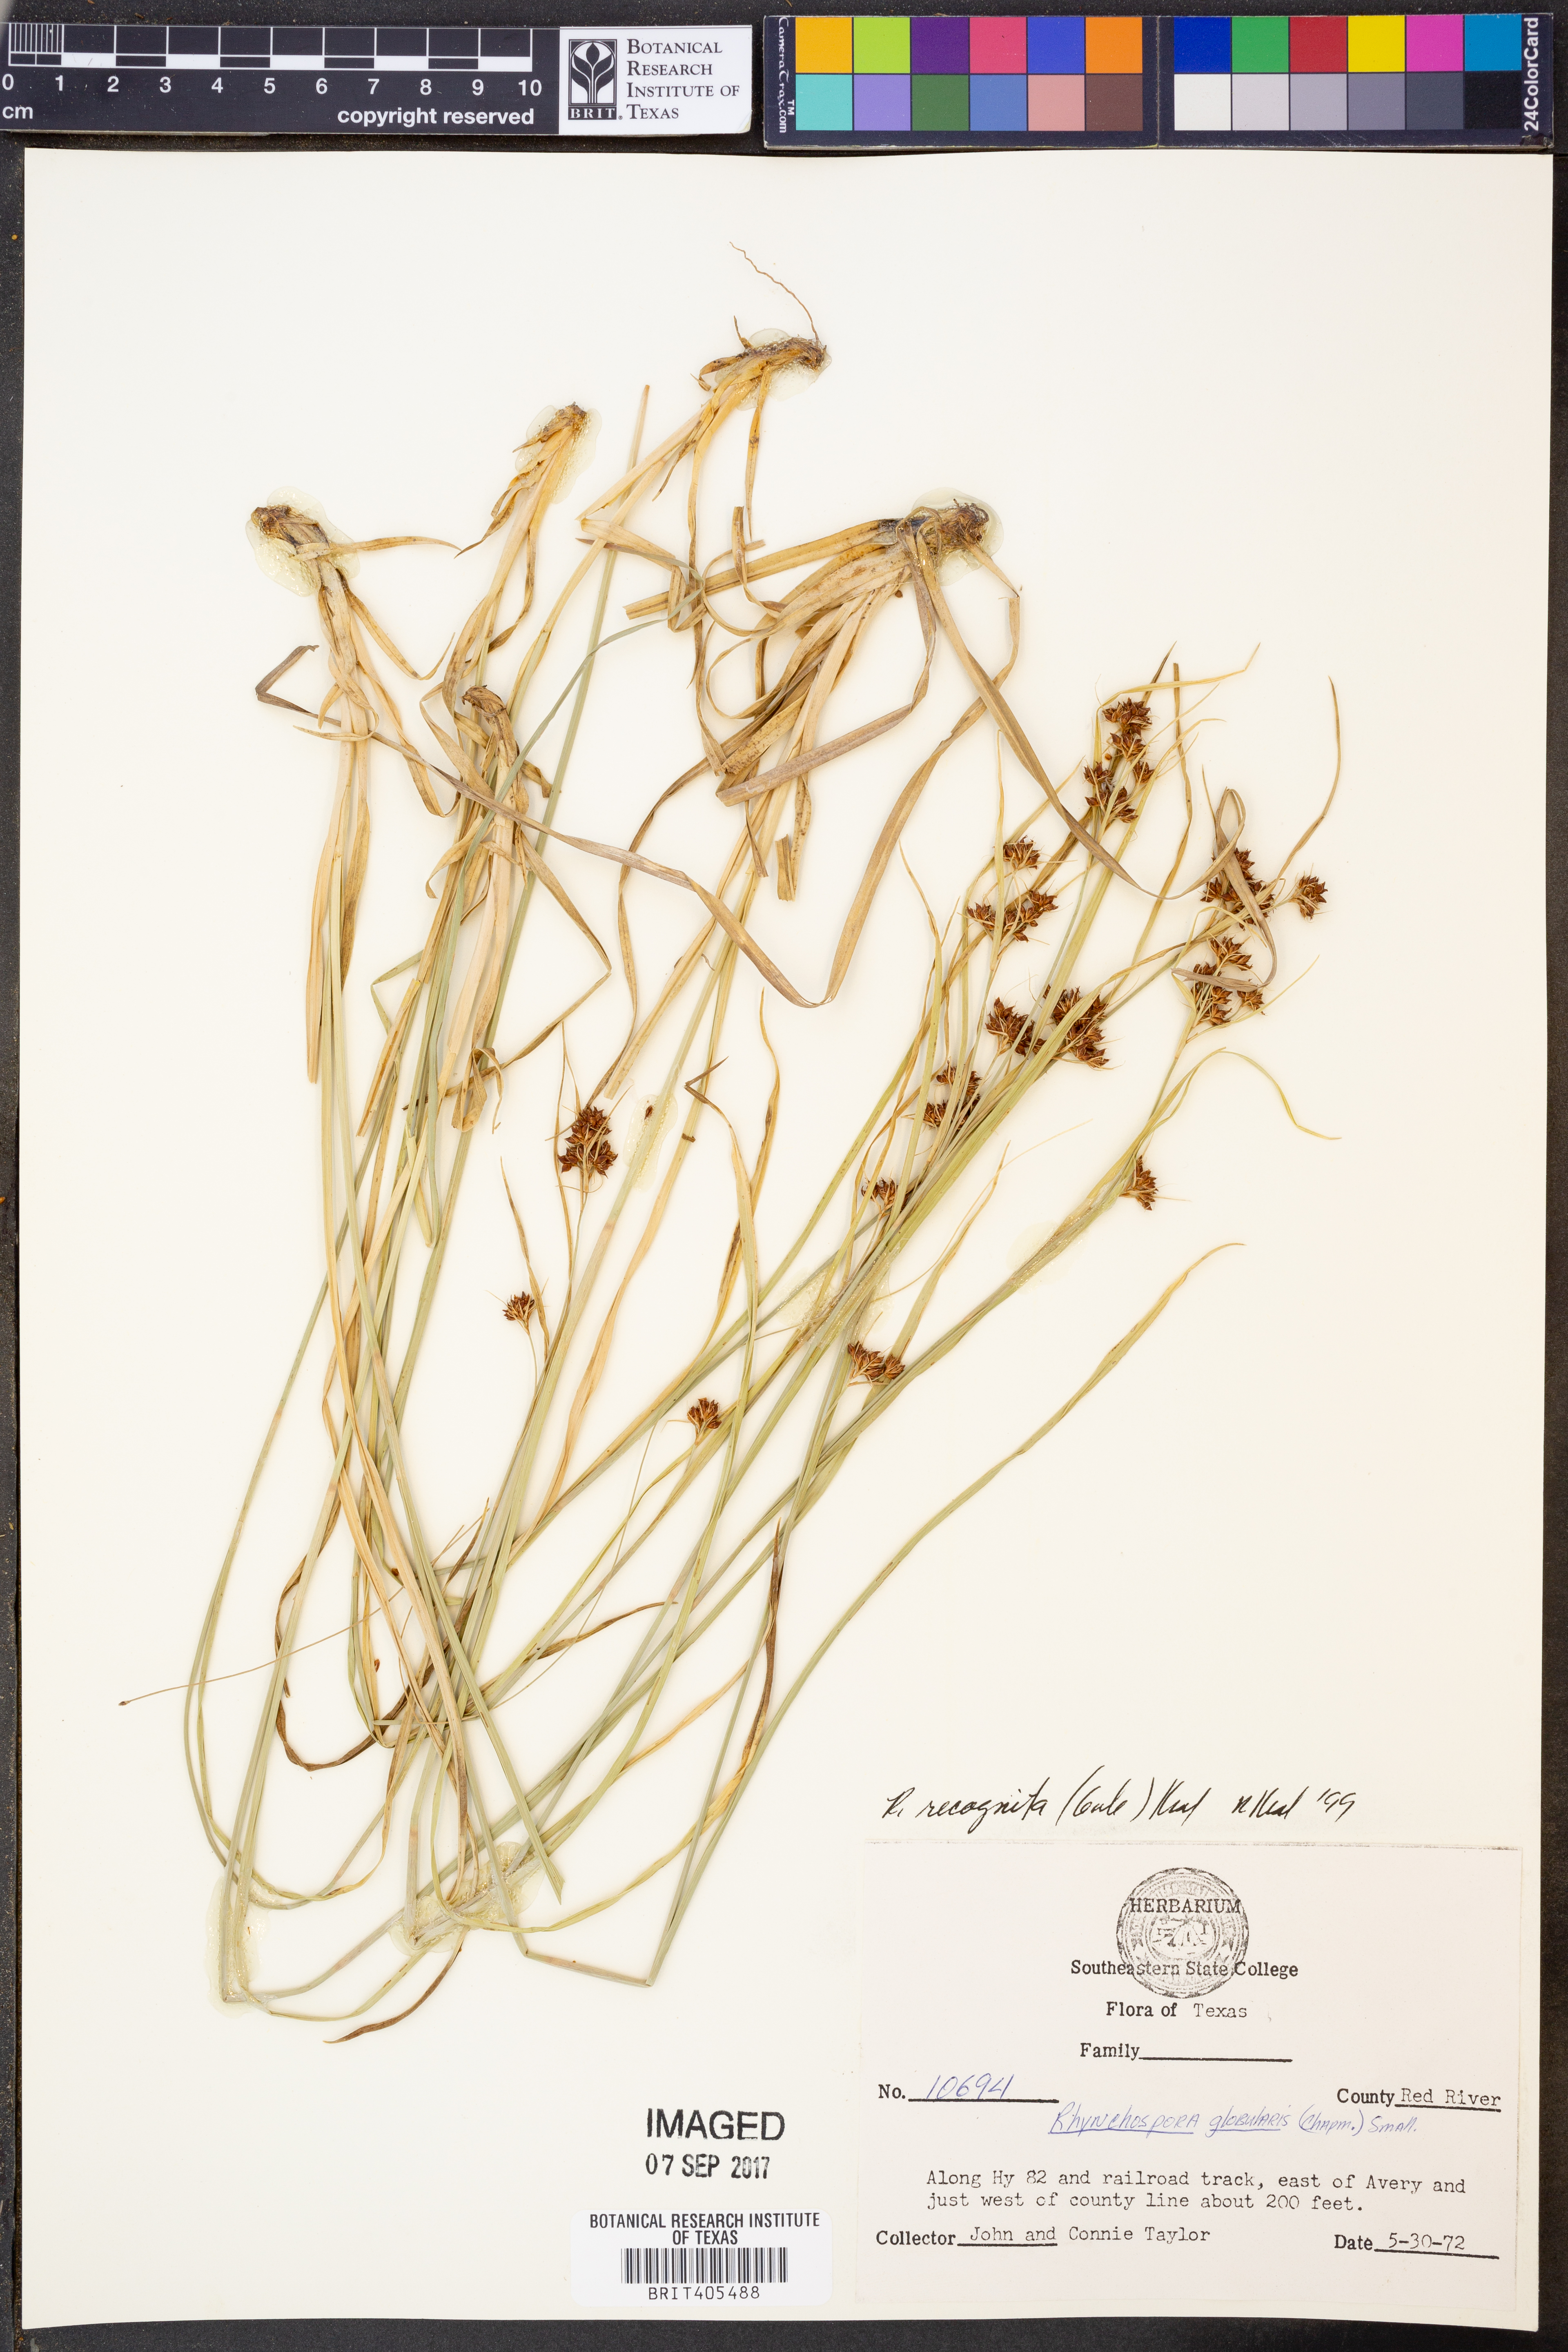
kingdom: Plantae
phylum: Tracheophyta
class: Liliopsida
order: Poales
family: Cyperaceae
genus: Rhynchospora
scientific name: Rhynchospora recognita
